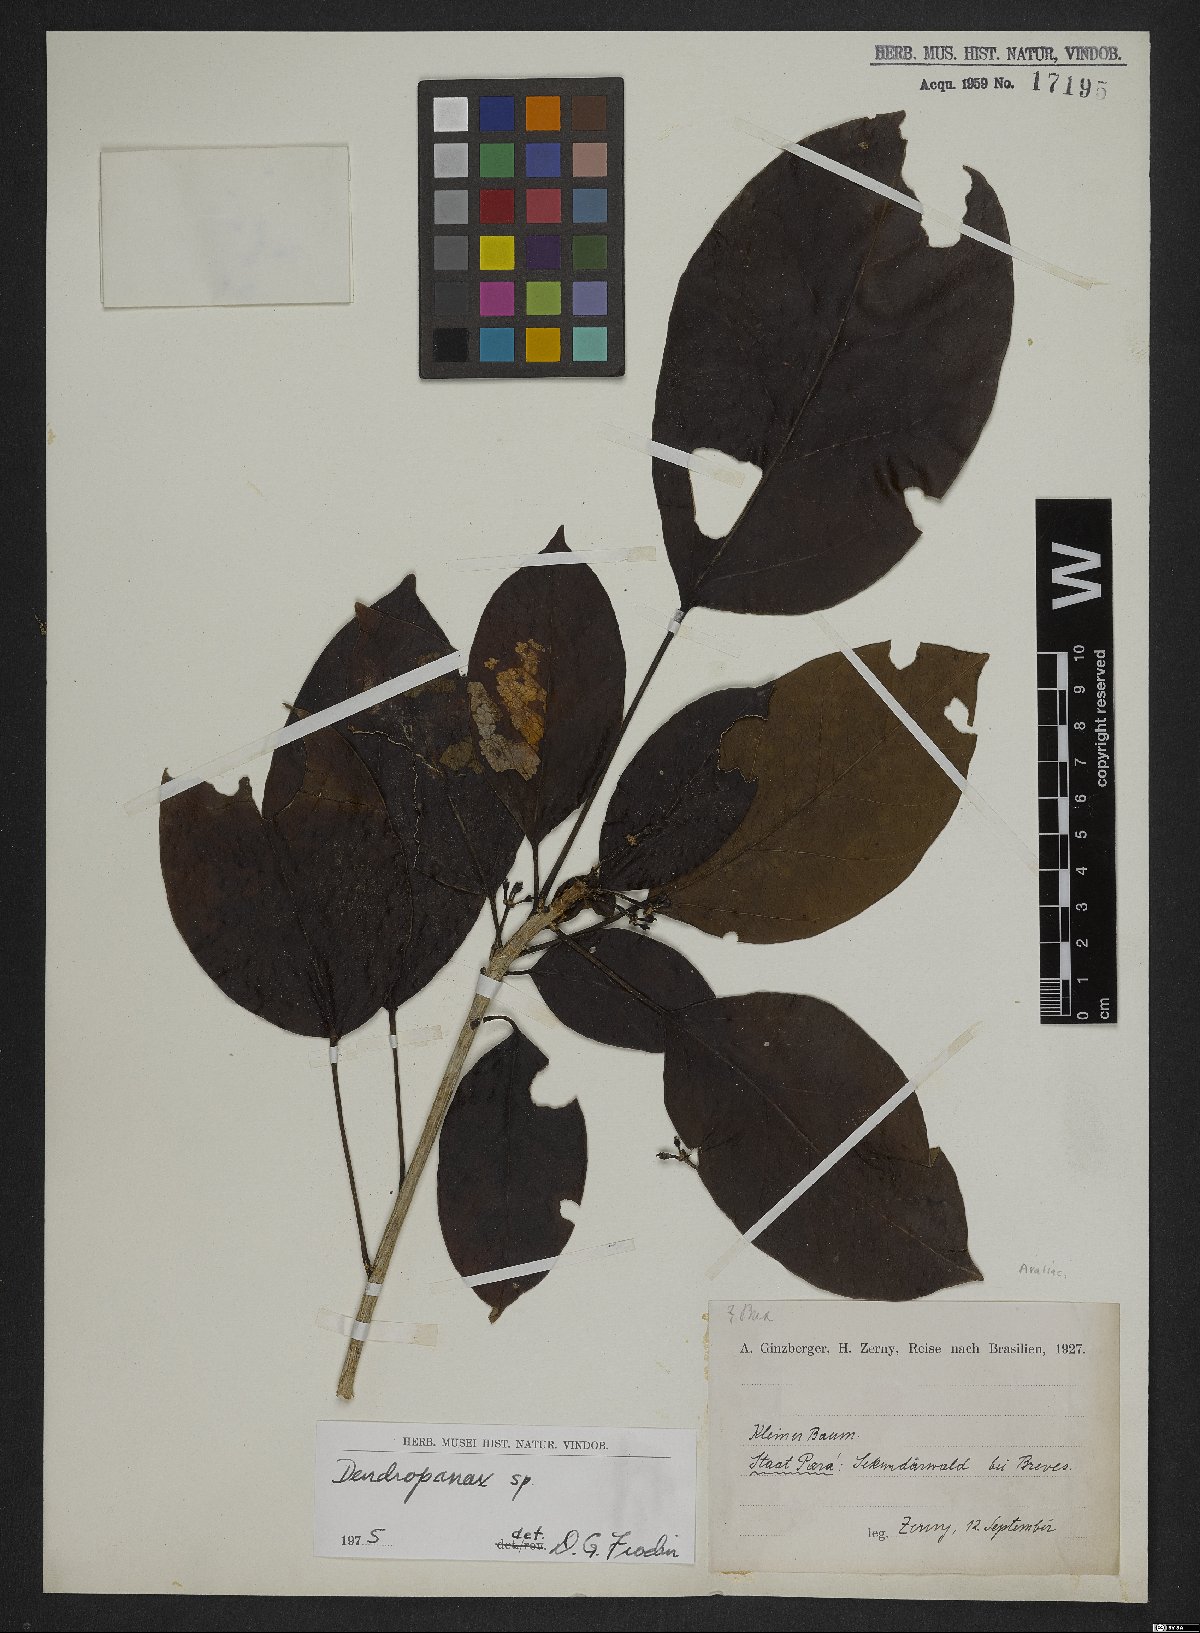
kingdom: Plantae
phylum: Tracheophyta
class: Magnoliopsida
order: Apiales
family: Araliaceae
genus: Dendropanax
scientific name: Dendropanax
